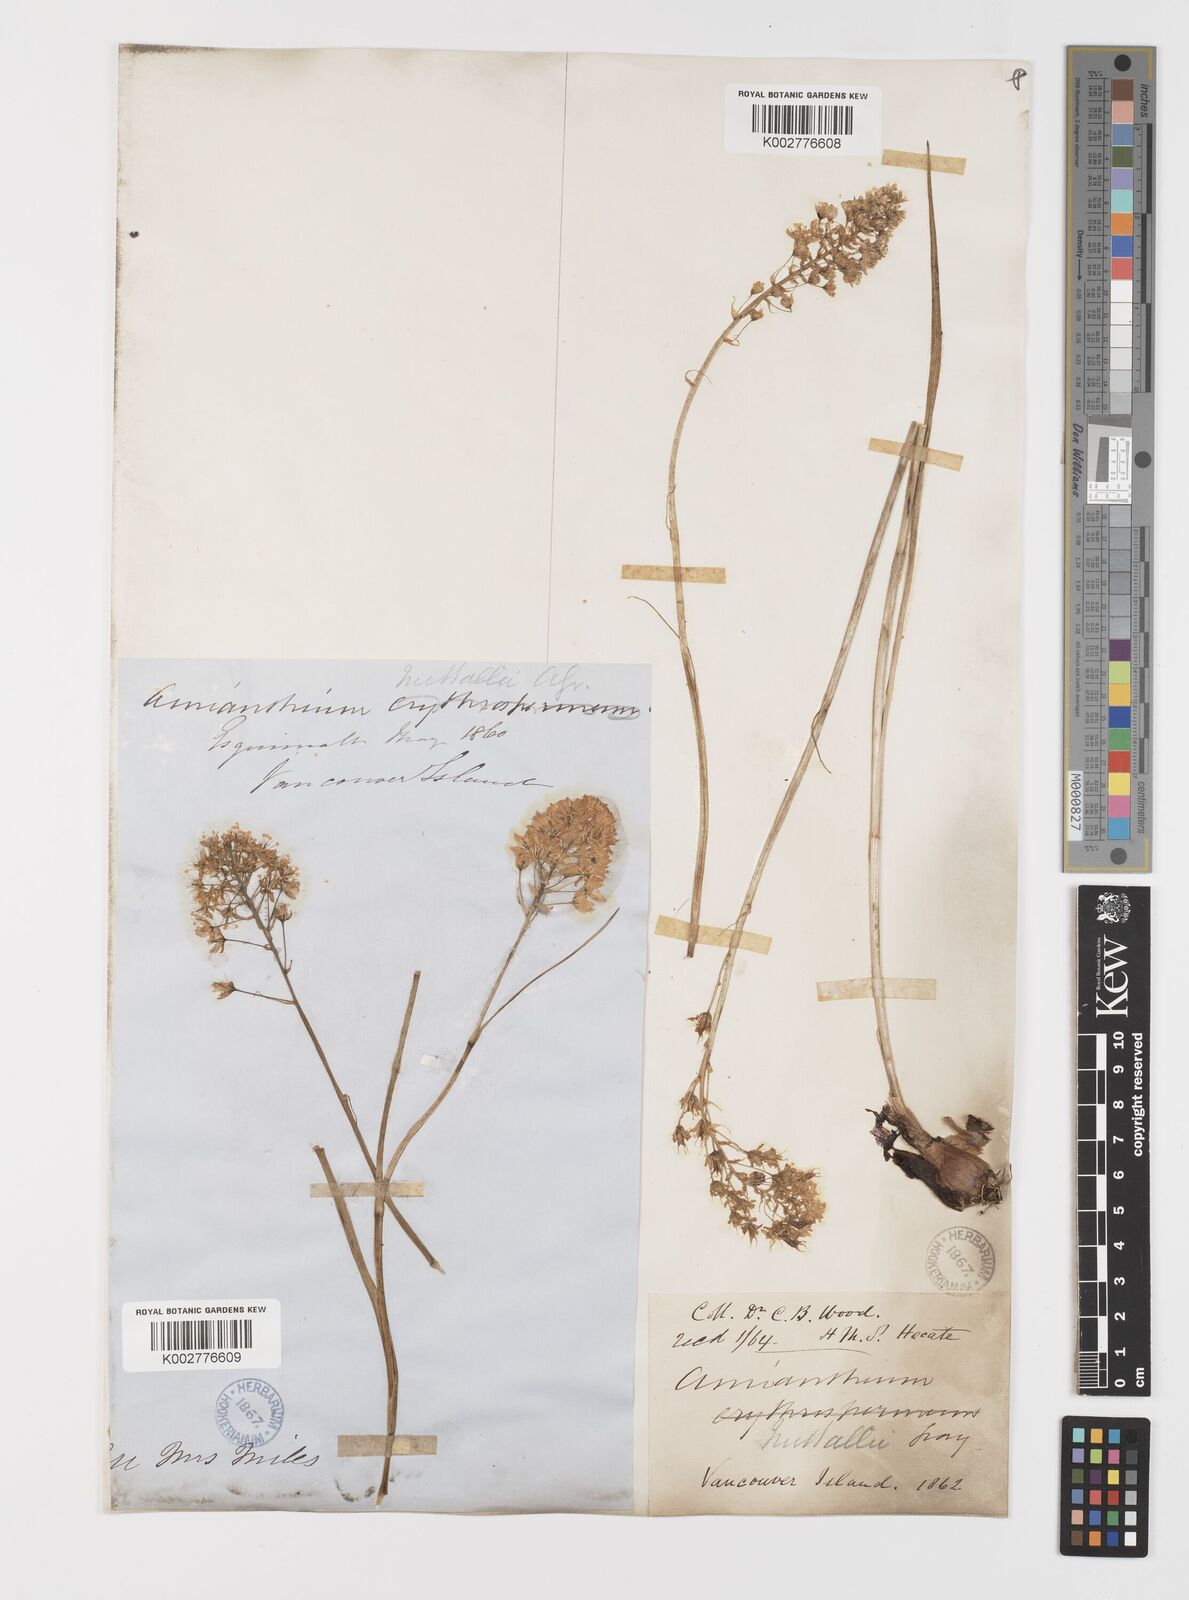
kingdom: Plantae
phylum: Tracheophyta
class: Liliopsida
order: Liliales
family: Melanthiaceae
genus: Toxicoscordion
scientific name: Toxicoscordion venenosum
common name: Meadow death camas
